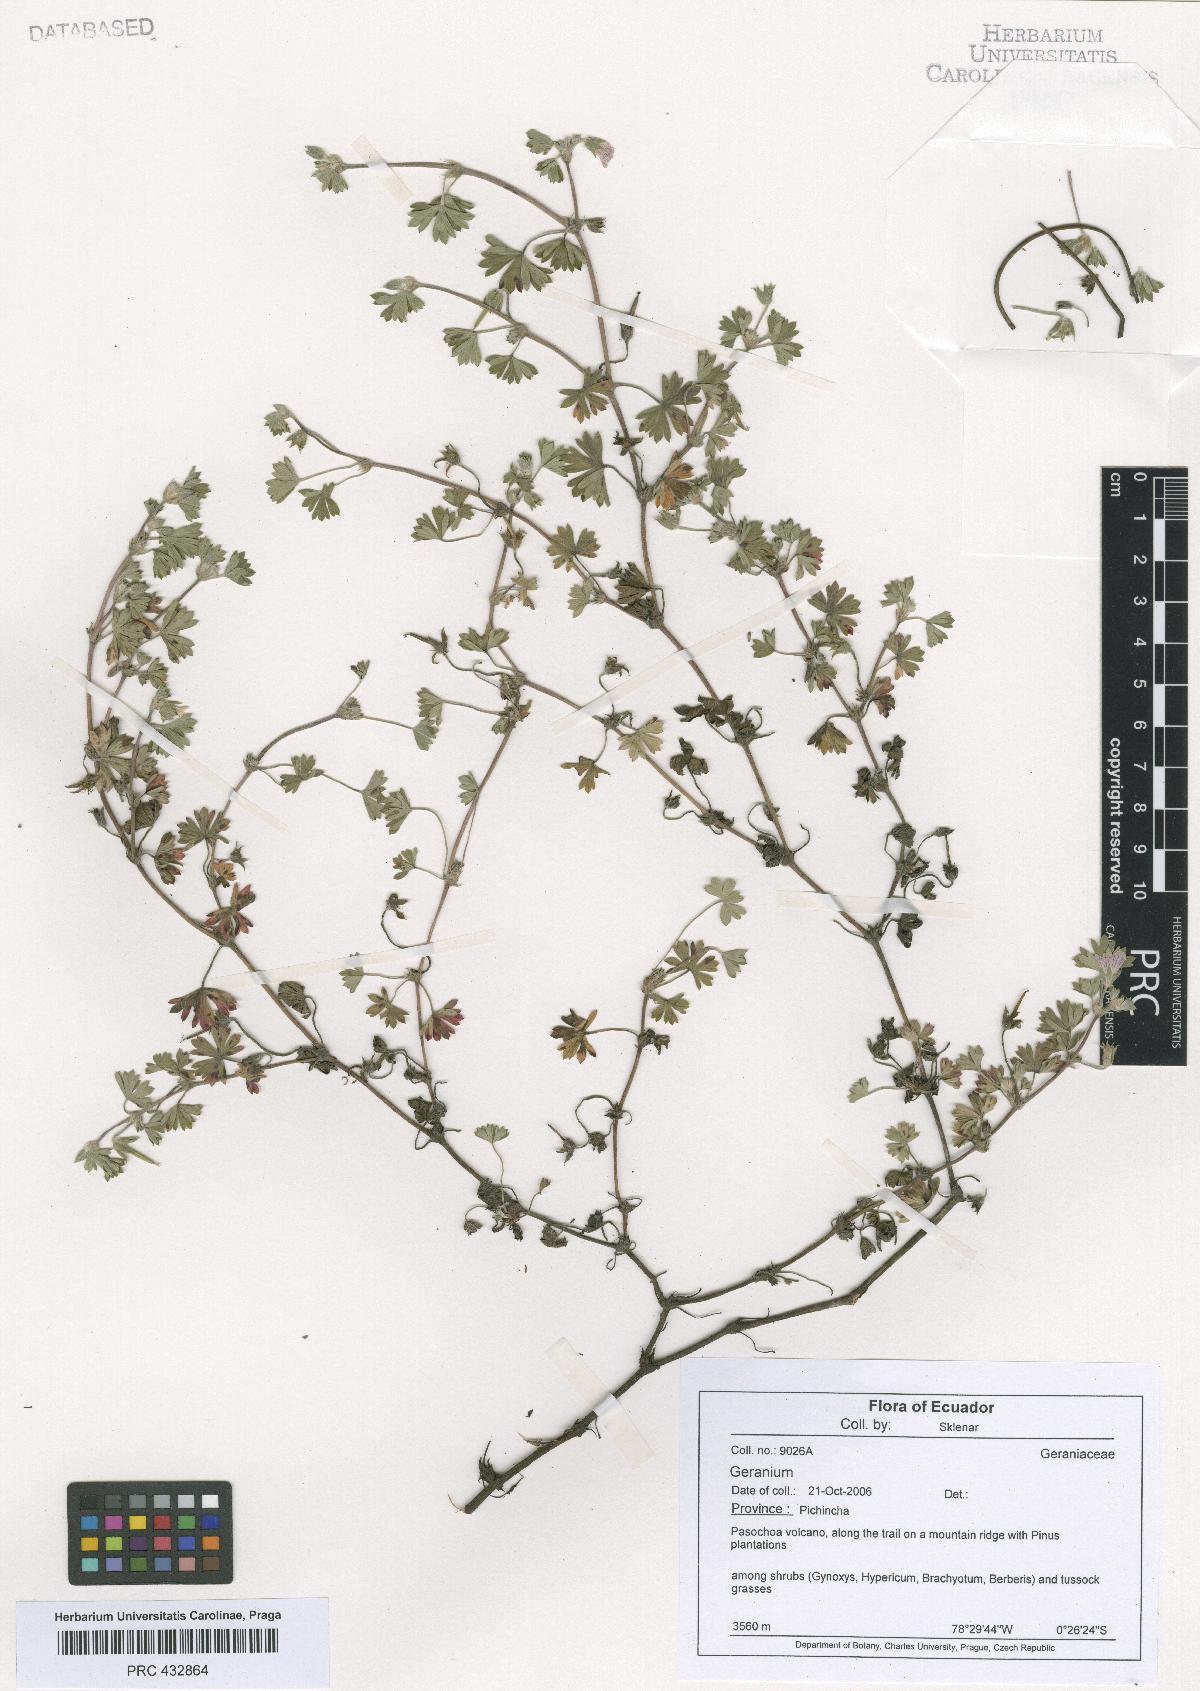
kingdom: Plantae
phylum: Tracheophyta
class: Magnoliopsida
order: Geraniales
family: Geraniaceae
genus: Geranium
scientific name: Geranium diffusum
